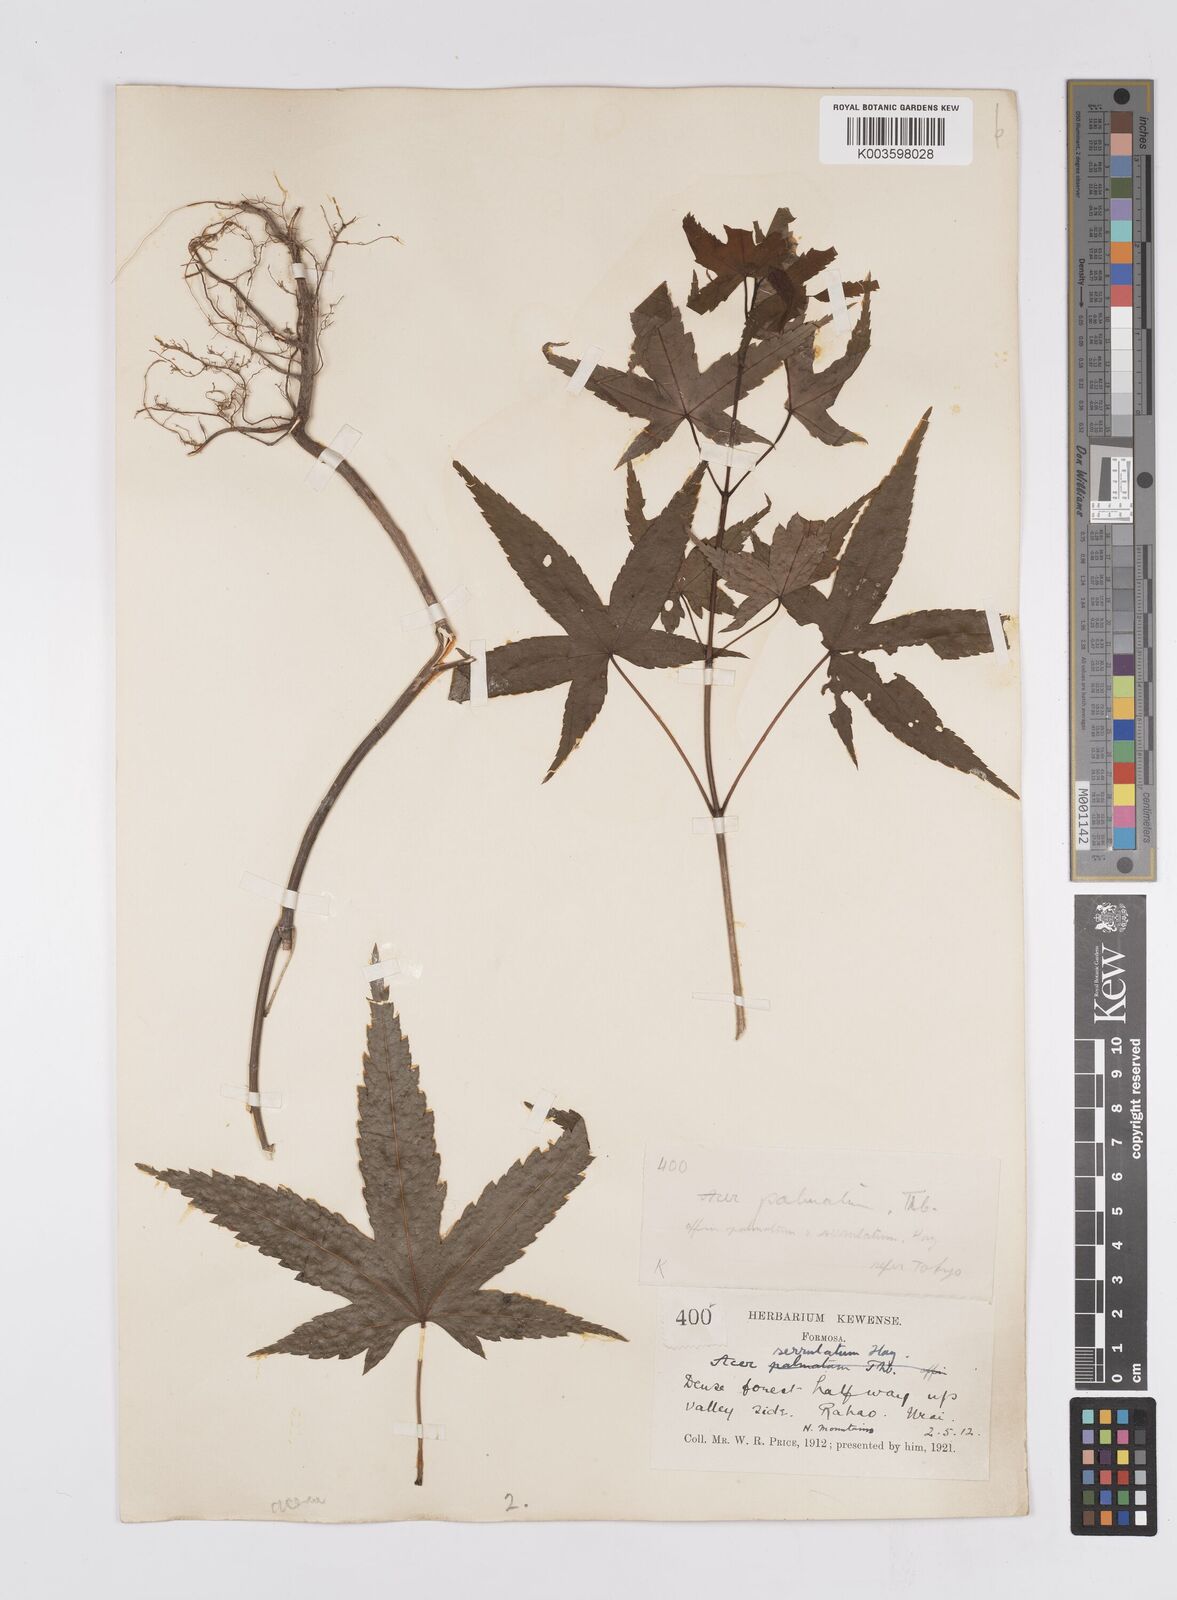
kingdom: Plantae
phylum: Tracheophyta
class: Magnoliopsida
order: Sapindales
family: Sapindaceae
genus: Acer
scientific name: Acer serrulatum
